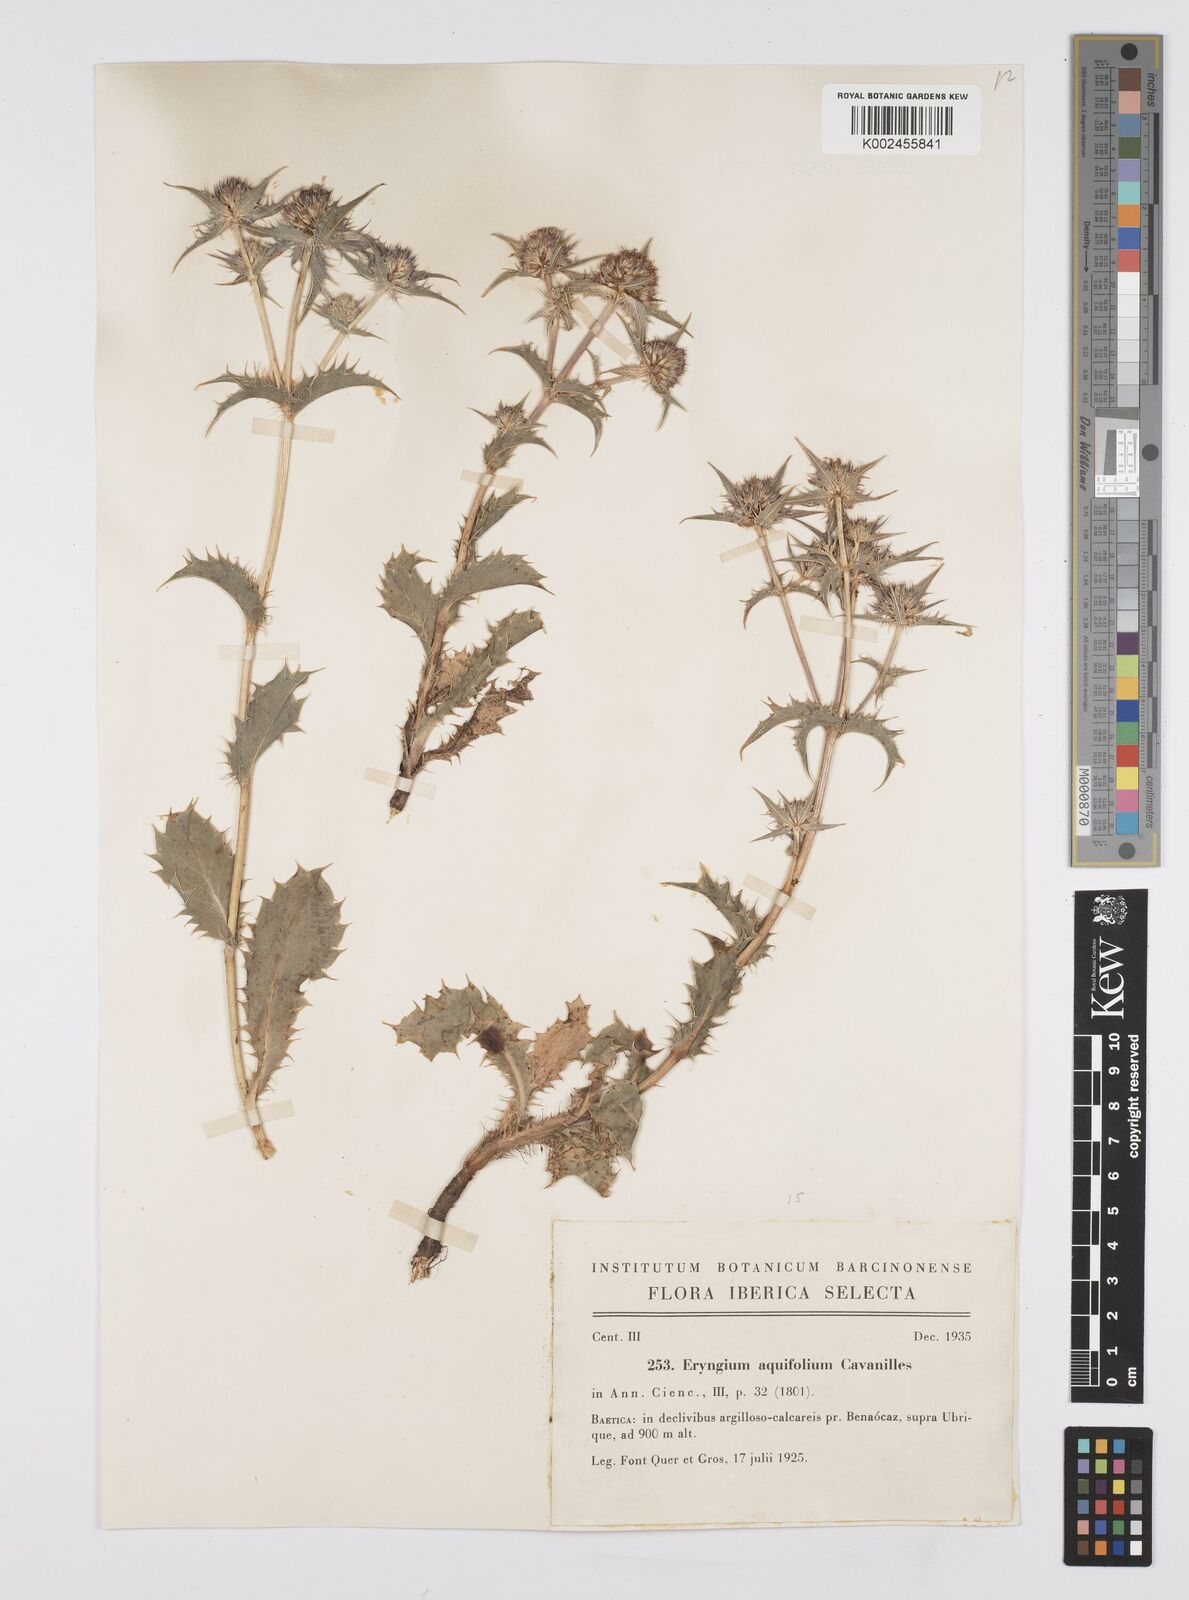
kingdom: Plantae
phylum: Tracheophyta
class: Magnoliopsida
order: Apiales
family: Apiaceae
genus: Eryngium
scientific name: Eryngium aquifolium
